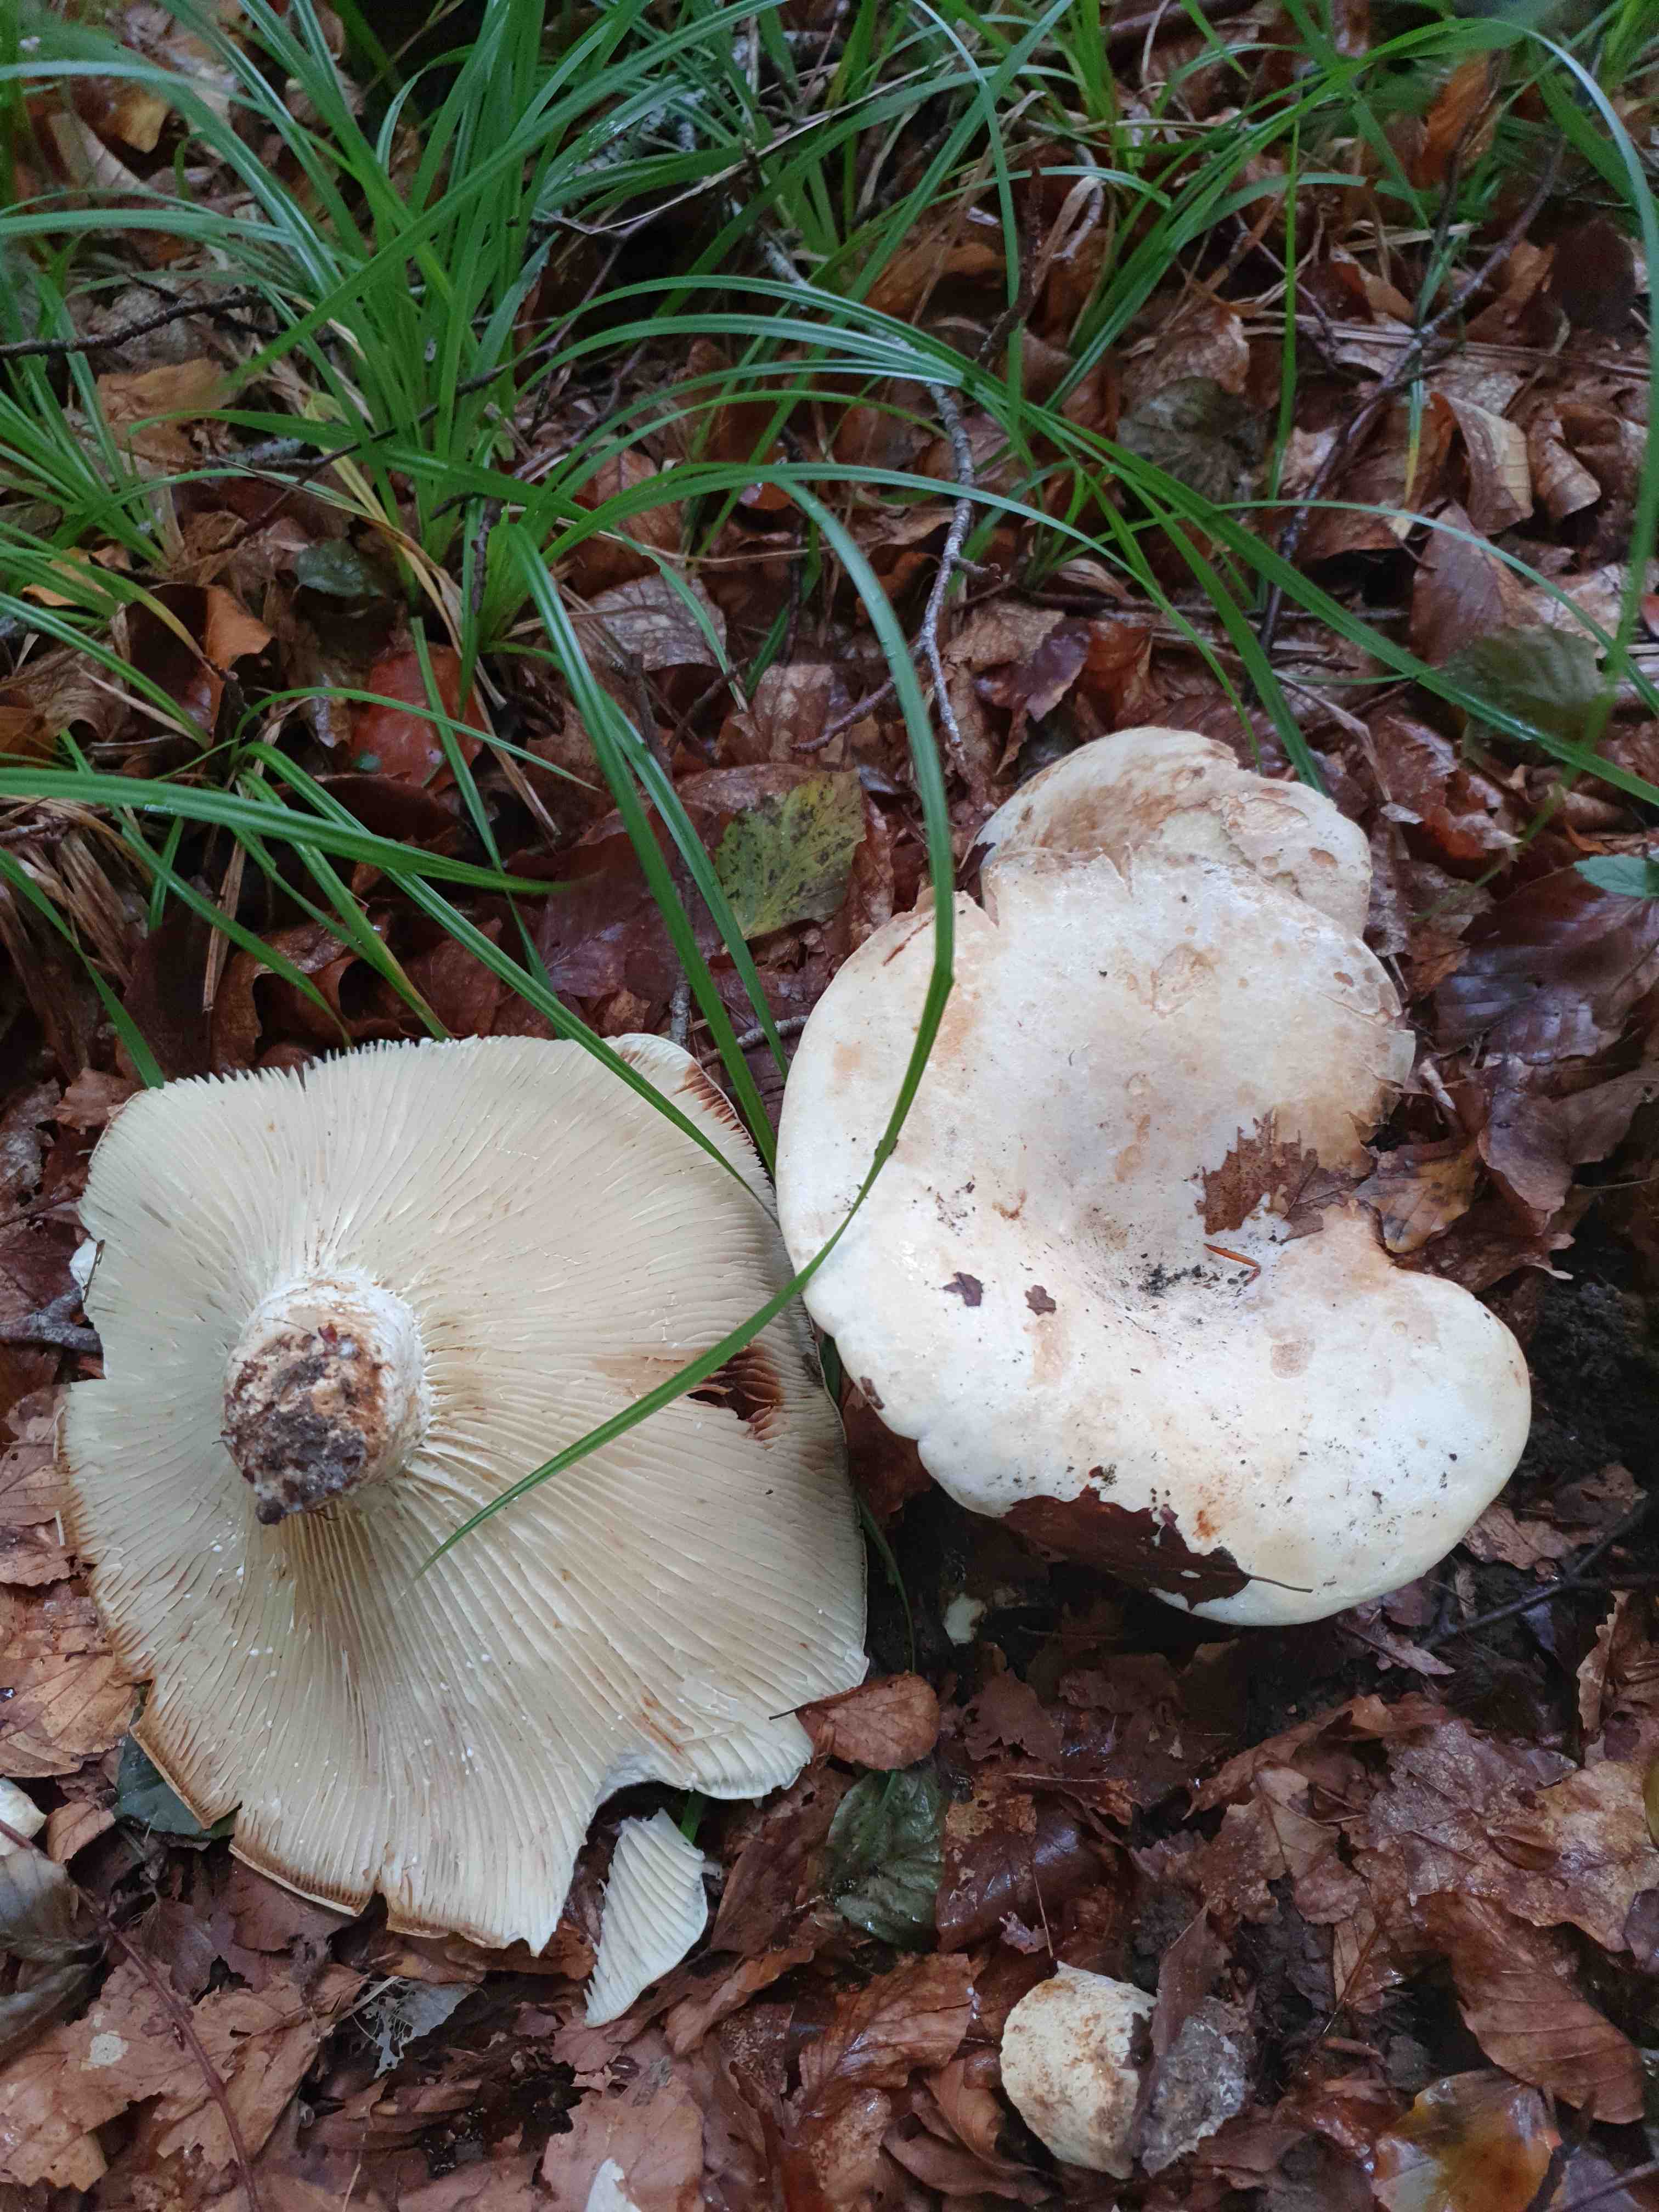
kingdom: Fungi
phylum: Basidiomycota
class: Agaricomycetes
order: Russulales
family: Russulaceae
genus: Lactifluus
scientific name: Lactifluus
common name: mælkehat
